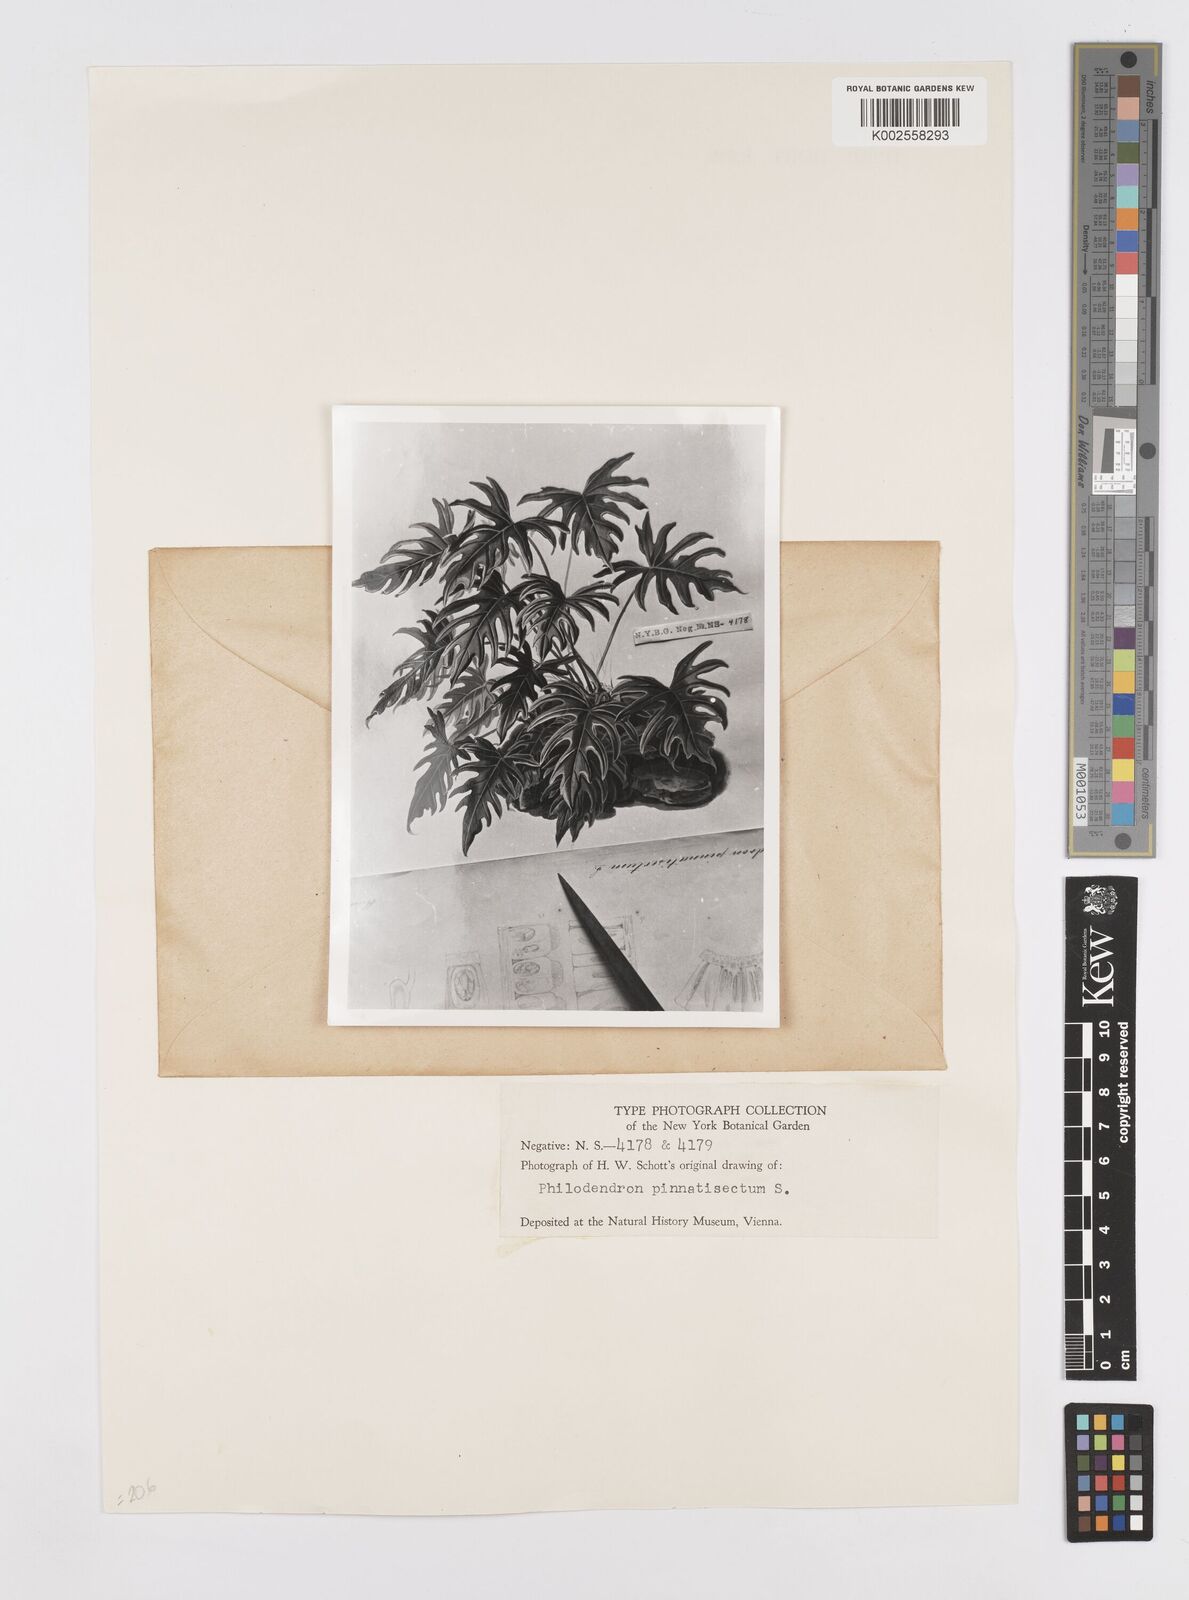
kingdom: Plantae
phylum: Tracheophyta
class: Liliopsida
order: Alismatales
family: Araceae
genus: Philodendron
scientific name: Philodendron
